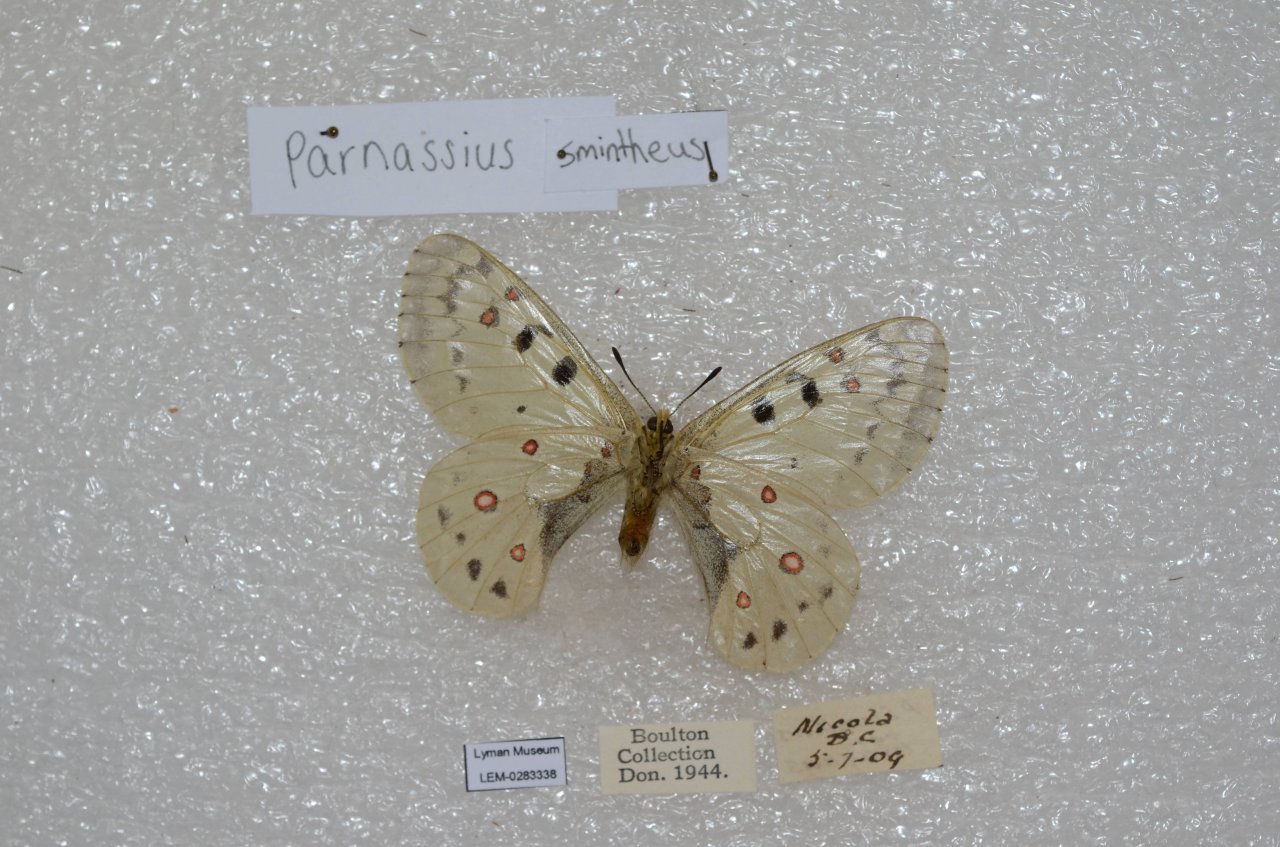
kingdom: Animalia
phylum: Arthropoda
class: Insecta
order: Lepidoptera
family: Papilionidae
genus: Parnassius
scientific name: Parnassius smintheus
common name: Rocky Mountain Parnassian
